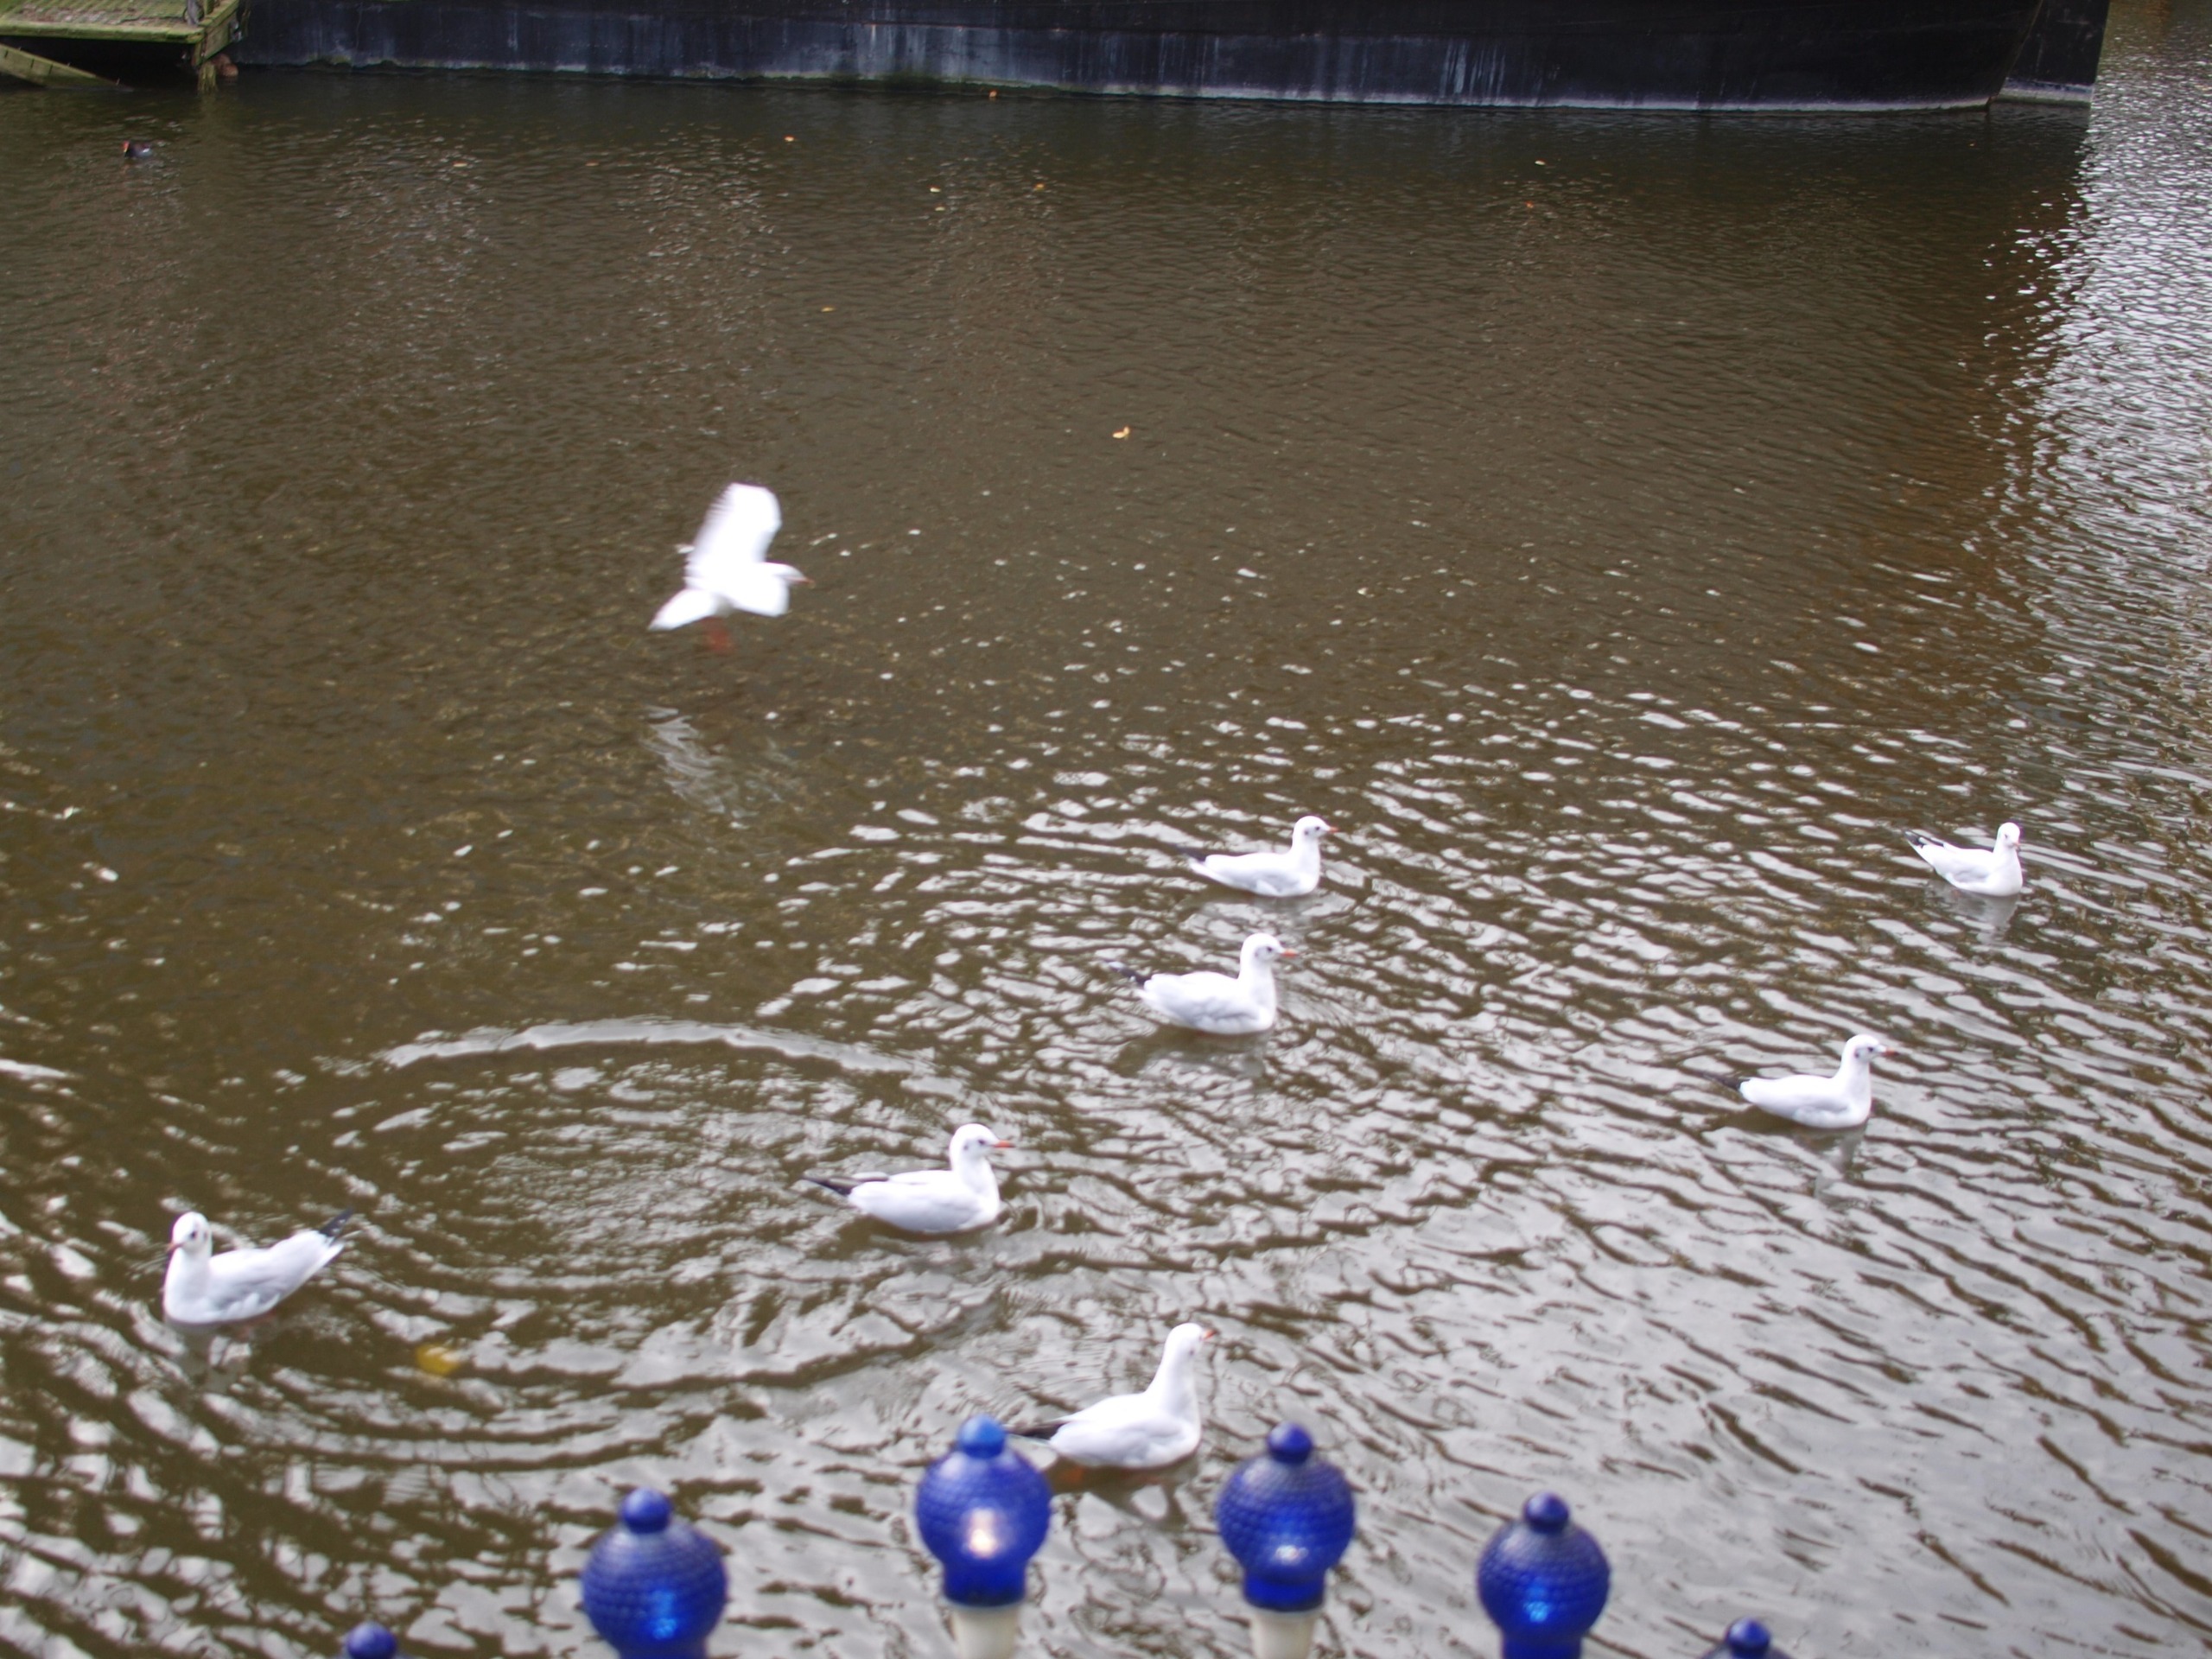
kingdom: Animalia
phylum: Chordata
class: Aves
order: Charadriiformes
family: Laridae
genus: Chroicocephalus
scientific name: Chroicocephalus ridibundus
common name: Hættemåge
